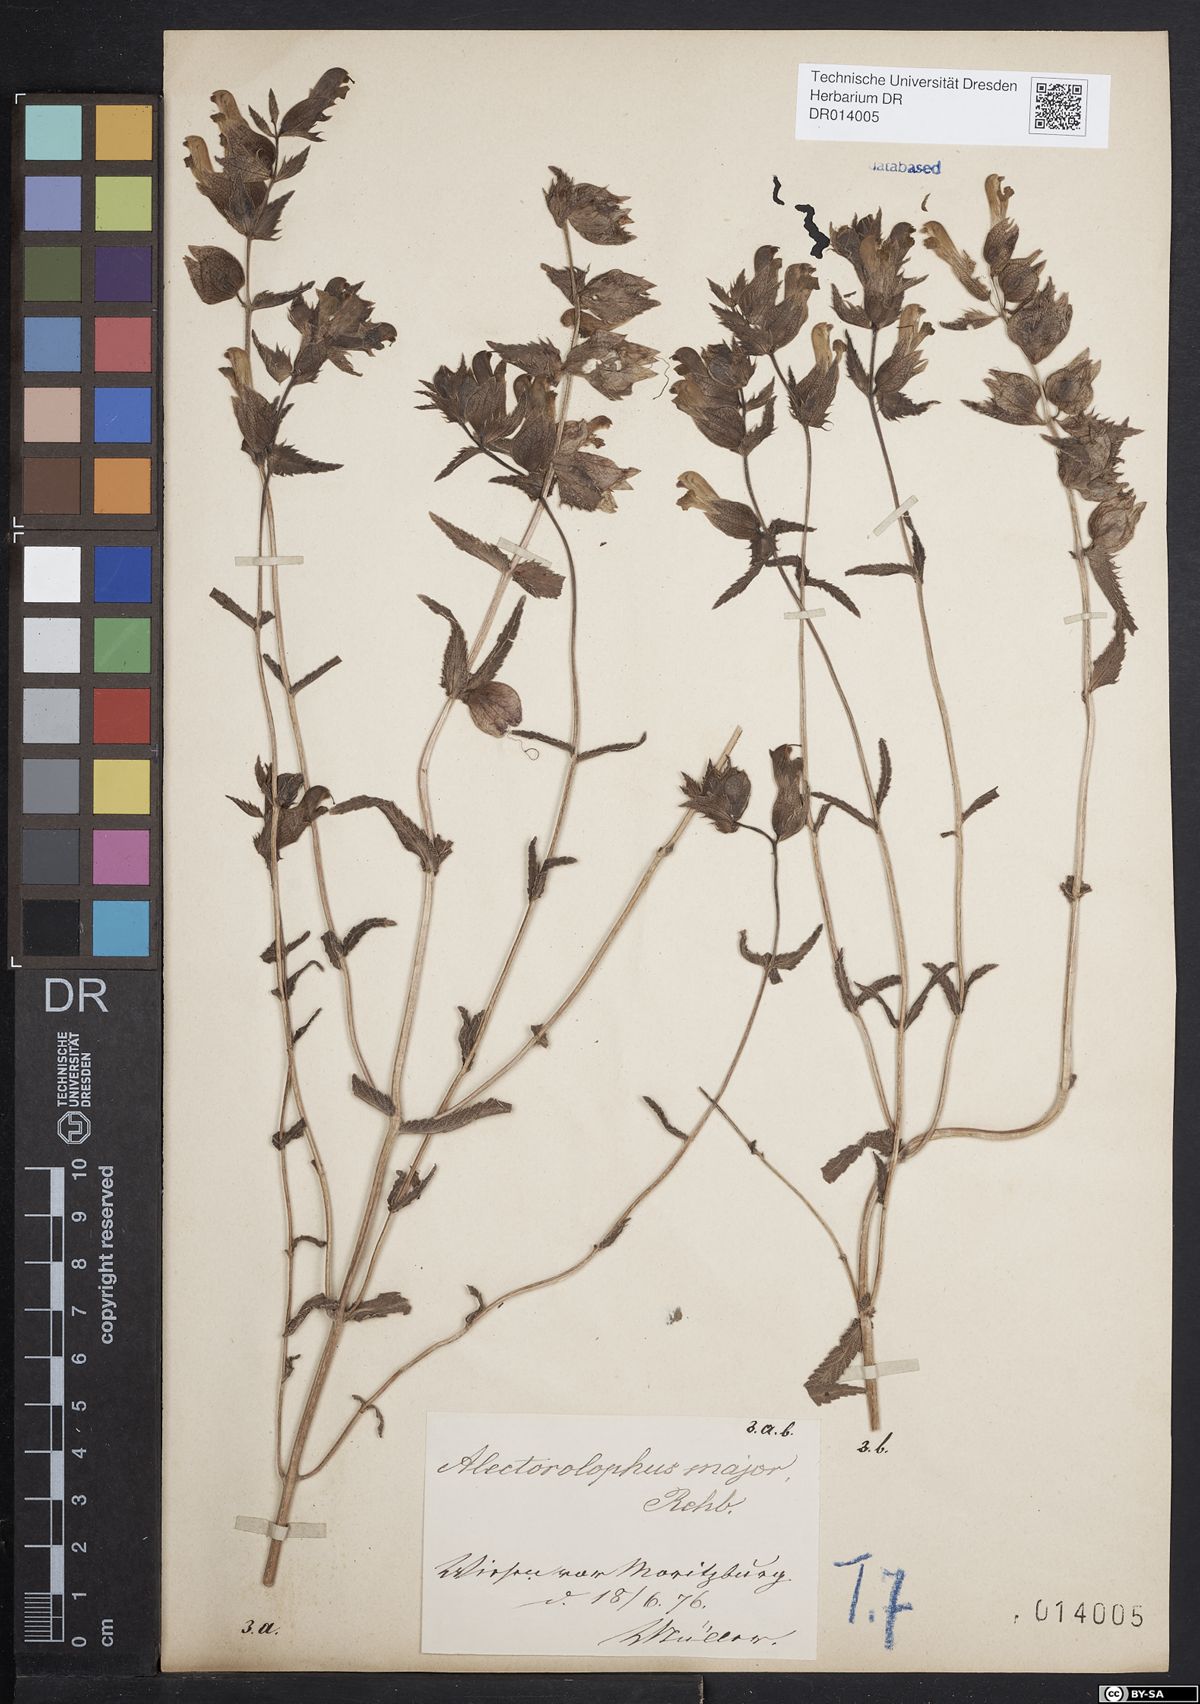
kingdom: Plantae
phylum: Tracheophyta
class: Magnoliopsida
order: Lamiales
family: Orobanchaceae
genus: Rhinanthus
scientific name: Rhinanthus serotinus
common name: Late-flowering yellow rattle
